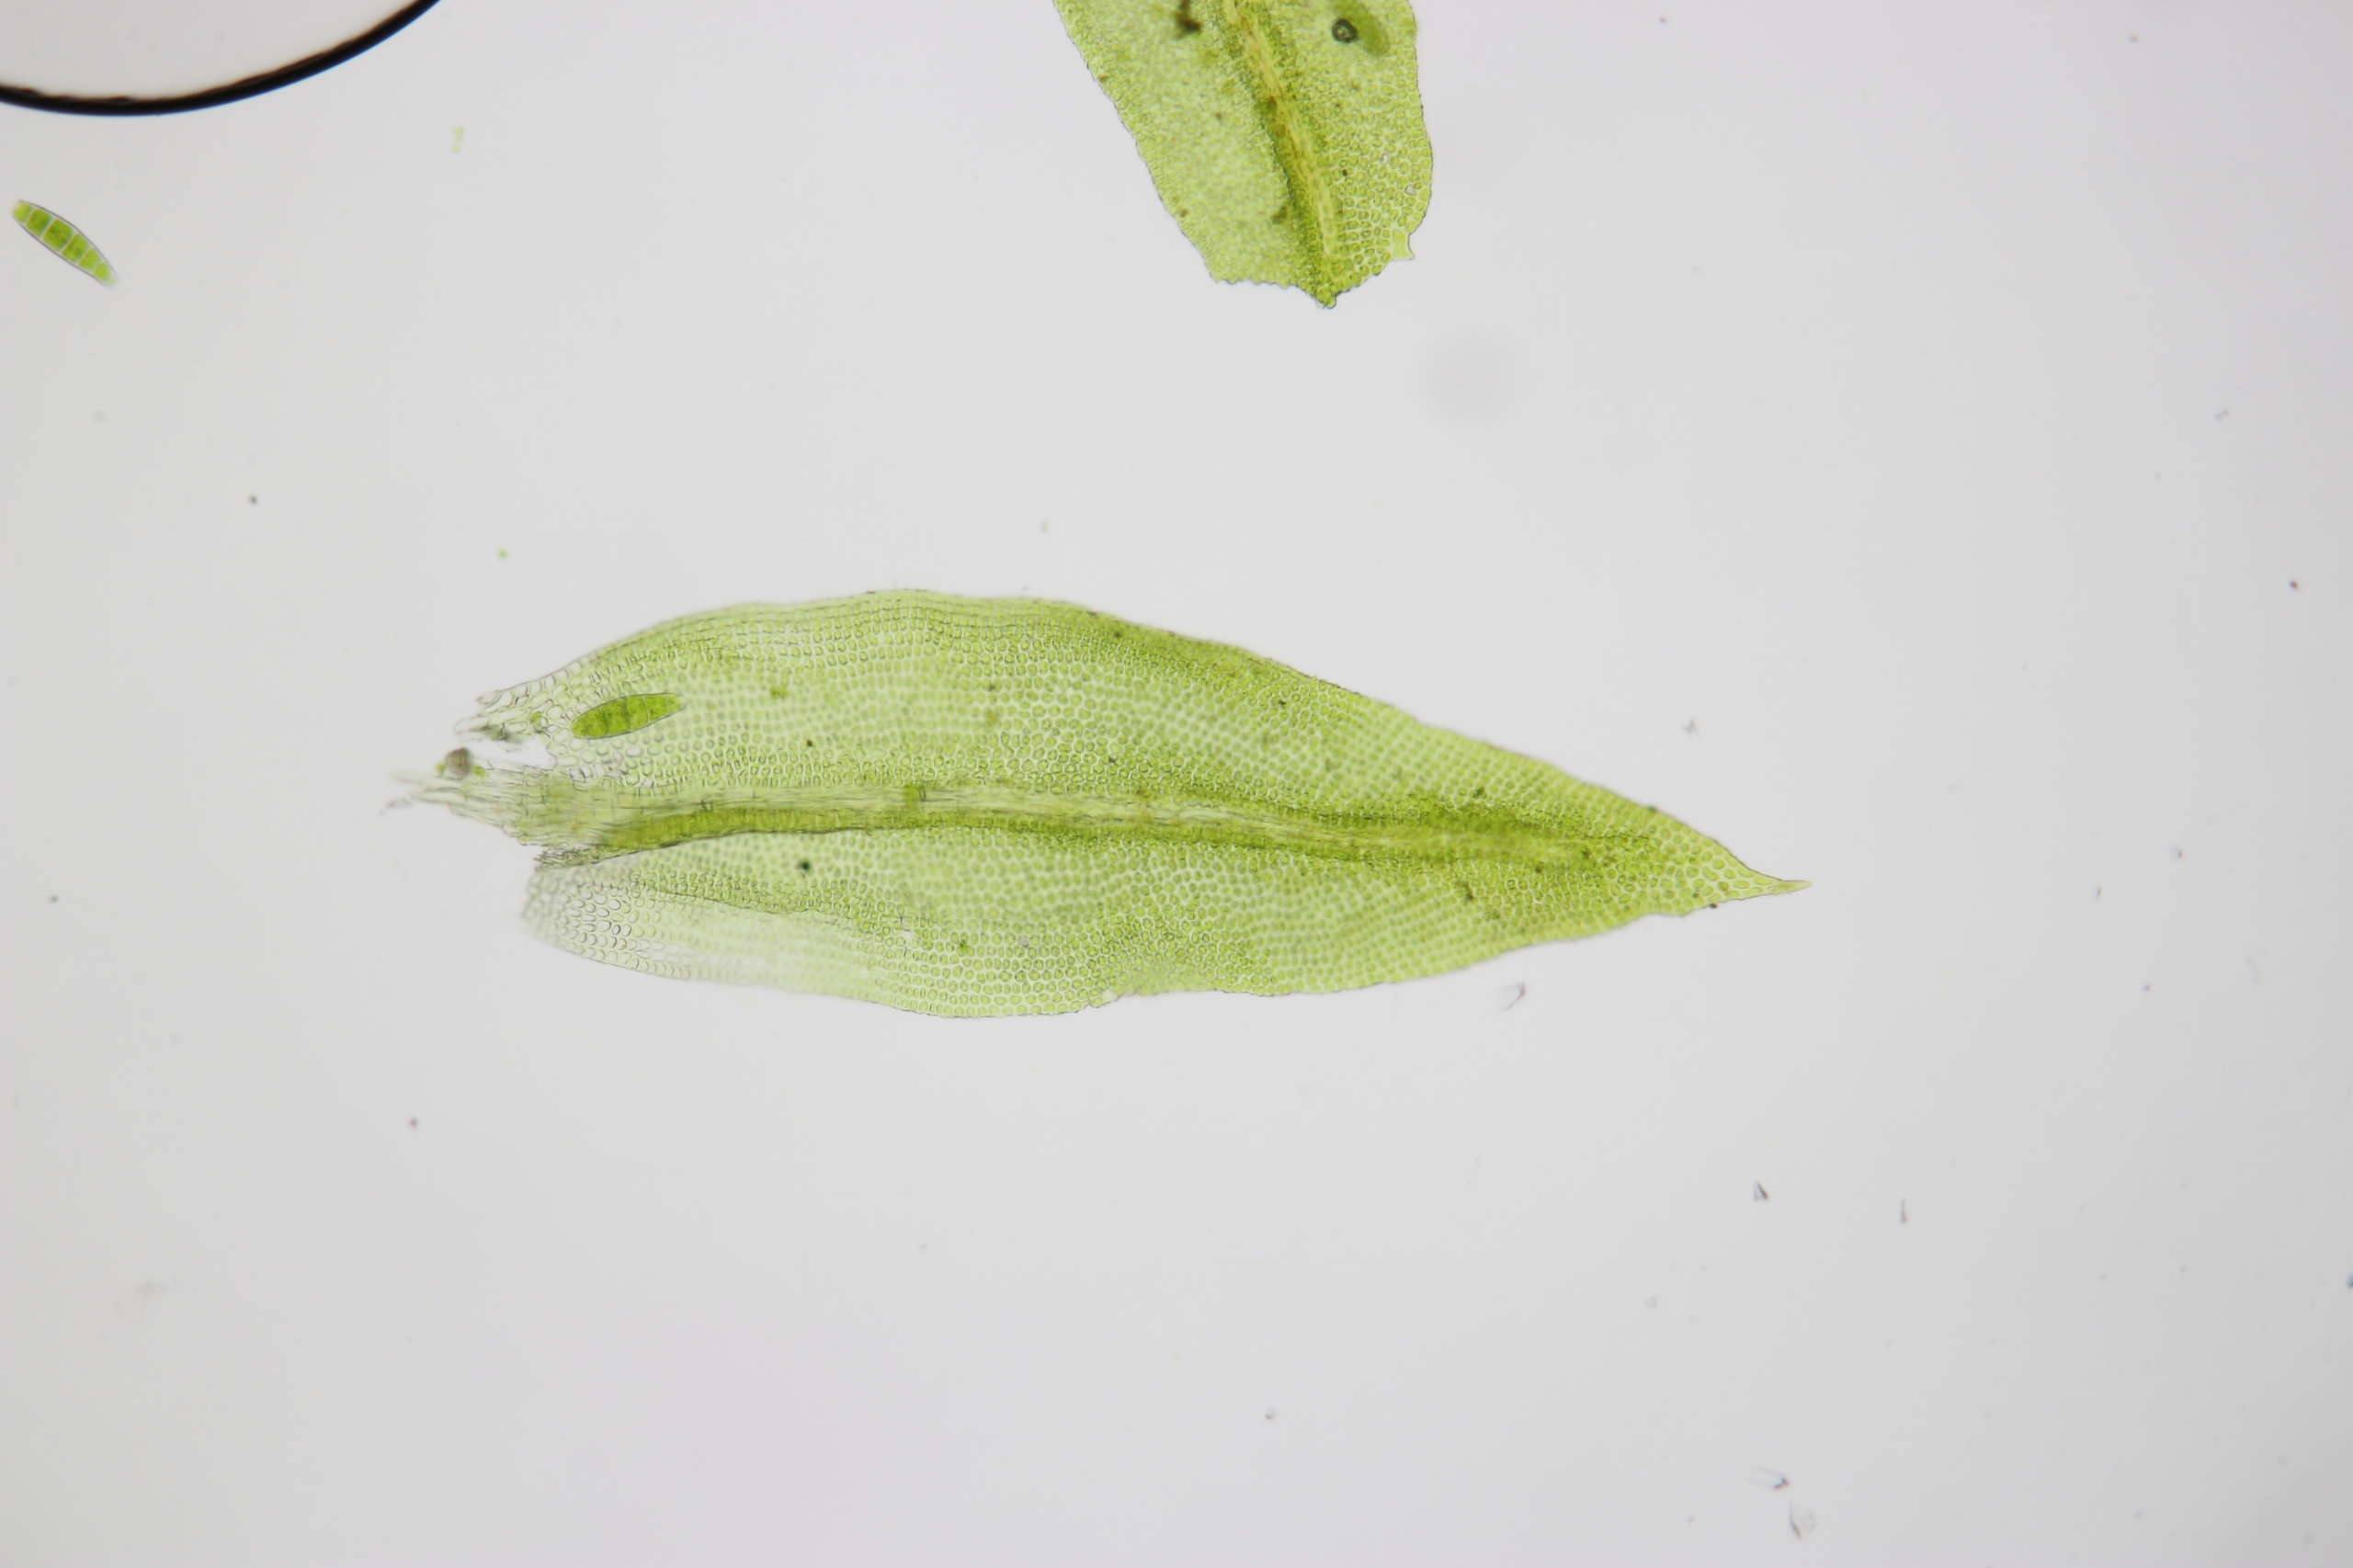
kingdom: Plantae
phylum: Bryophyta
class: Bryopsida
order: Orthotrichales
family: Orthotrichaceae
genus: Zygodon
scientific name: Zygodon conoideus
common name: Tand-køllemos
